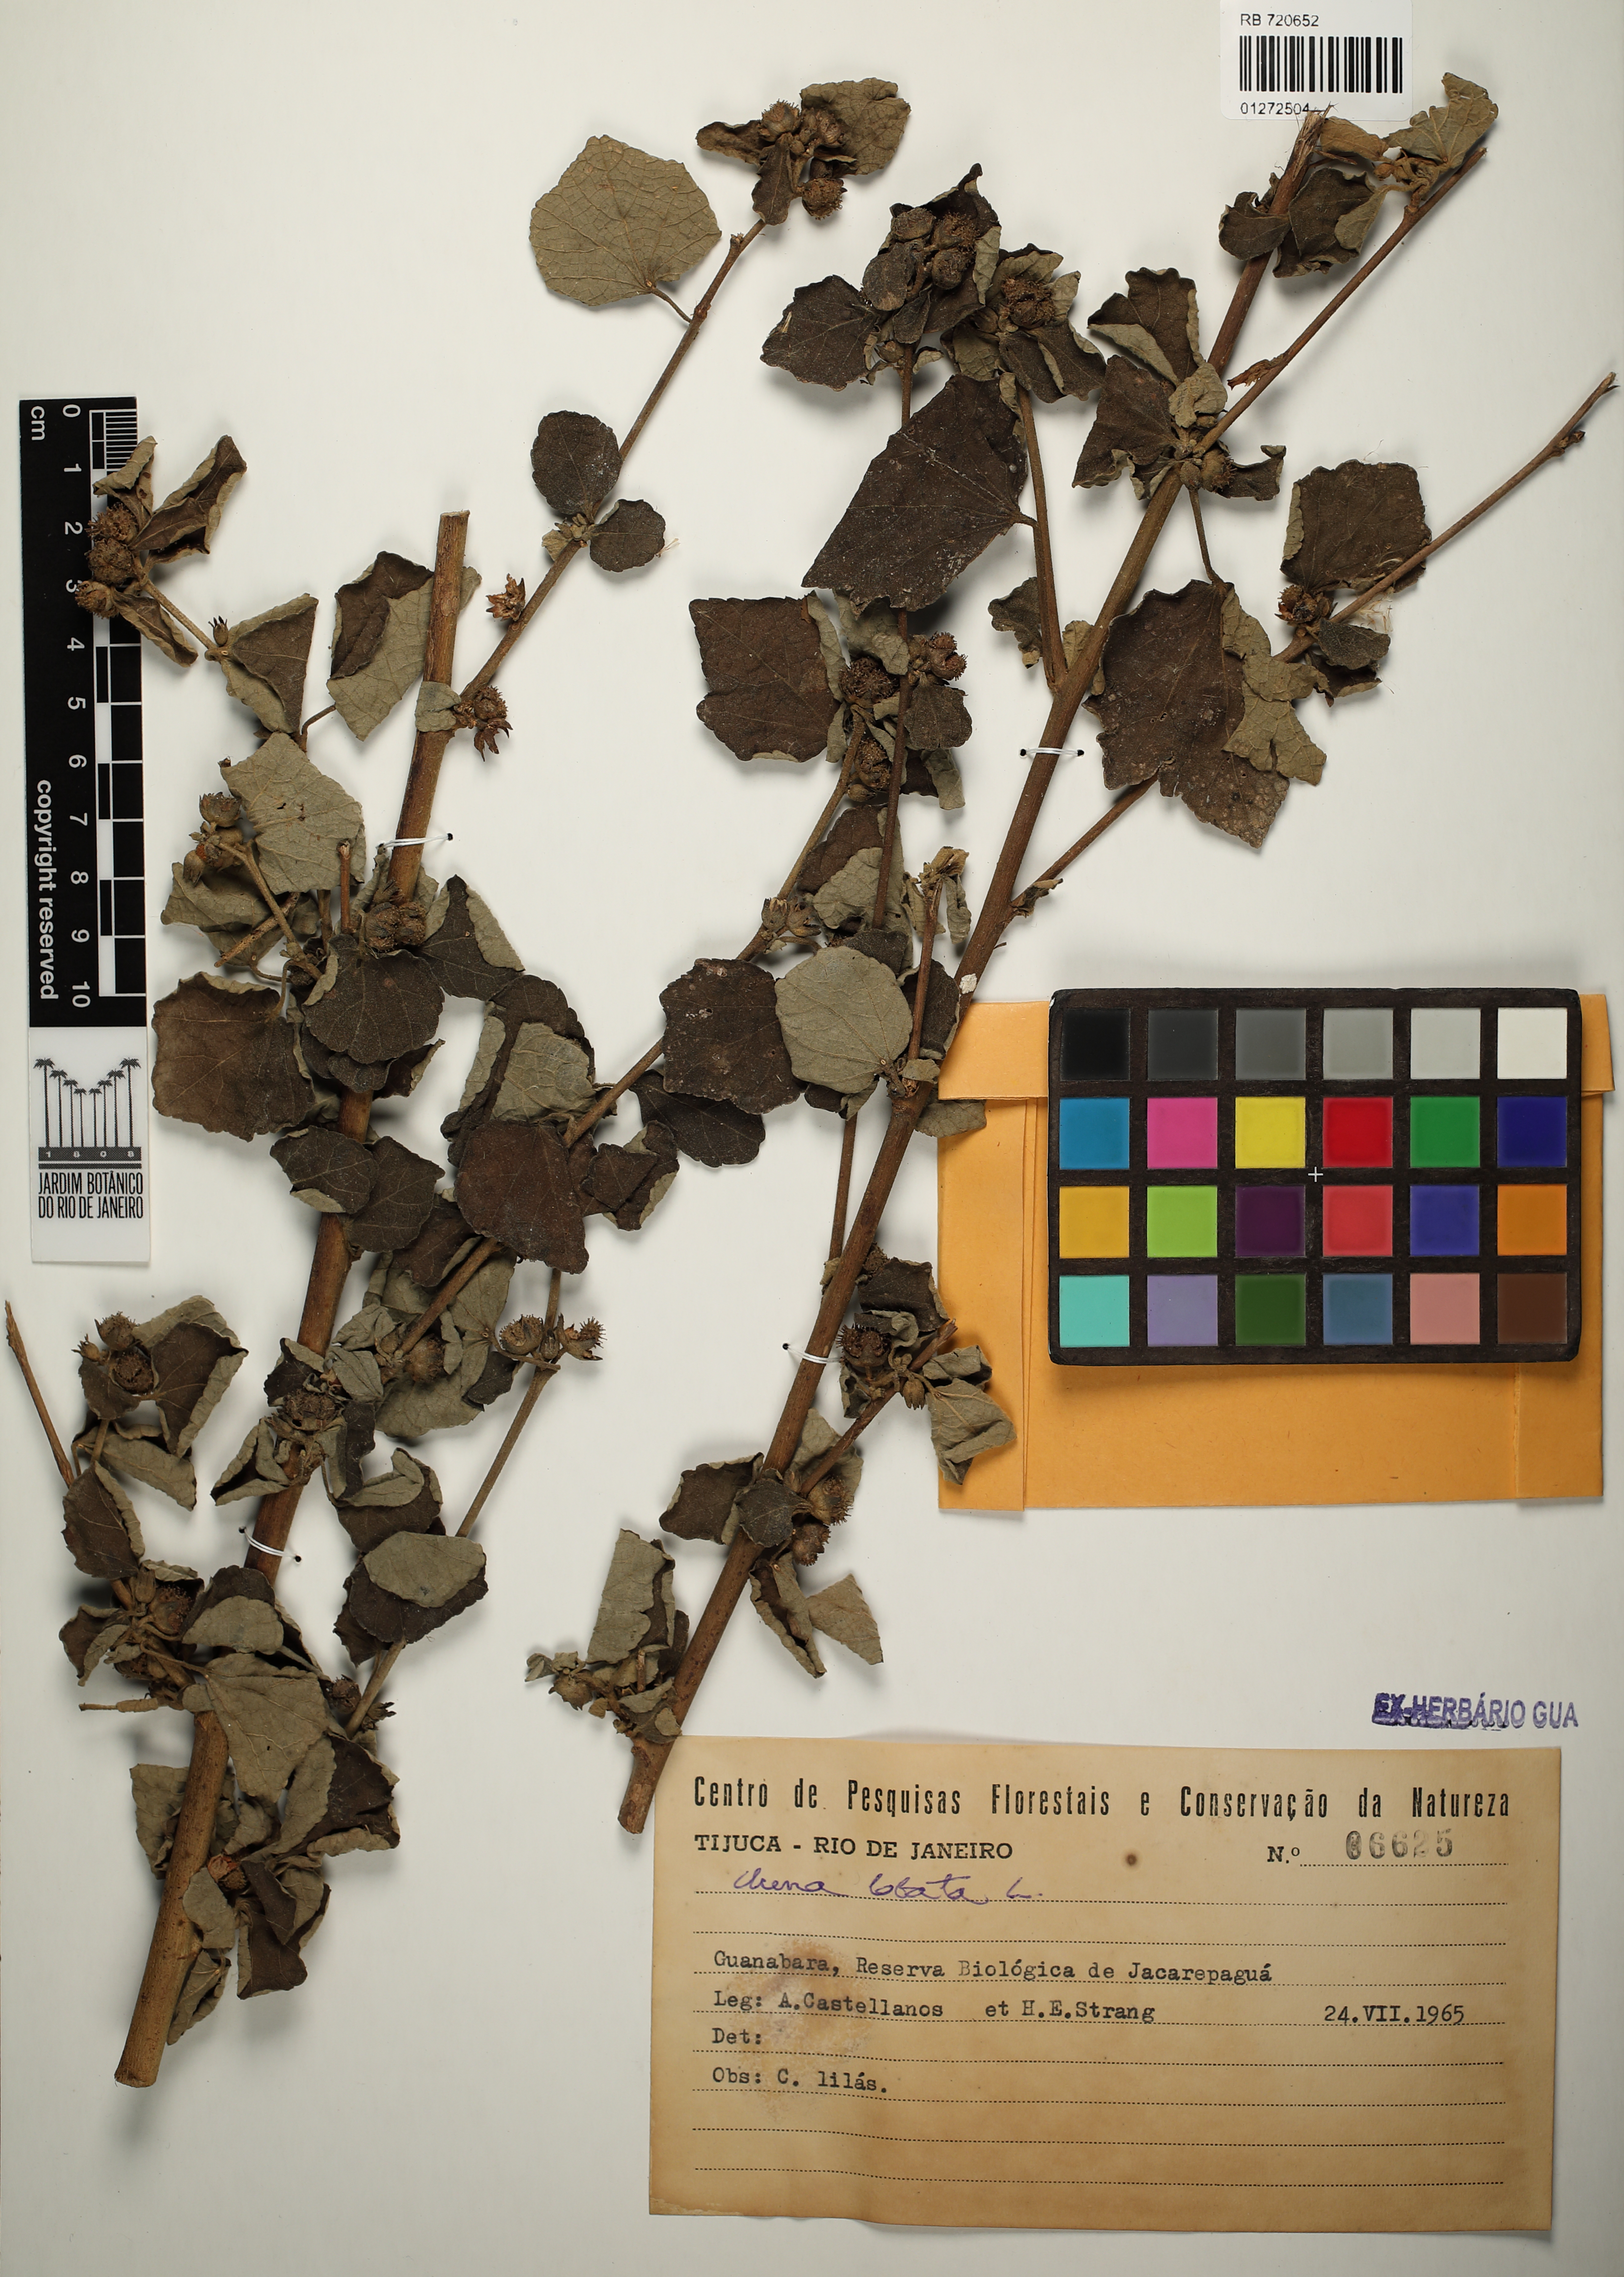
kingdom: Plantae
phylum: Tracheophyta
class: Magnoliopsida
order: Malvales
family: Malvaceae
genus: Urena
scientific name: Urena lobata
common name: Caesarweed
